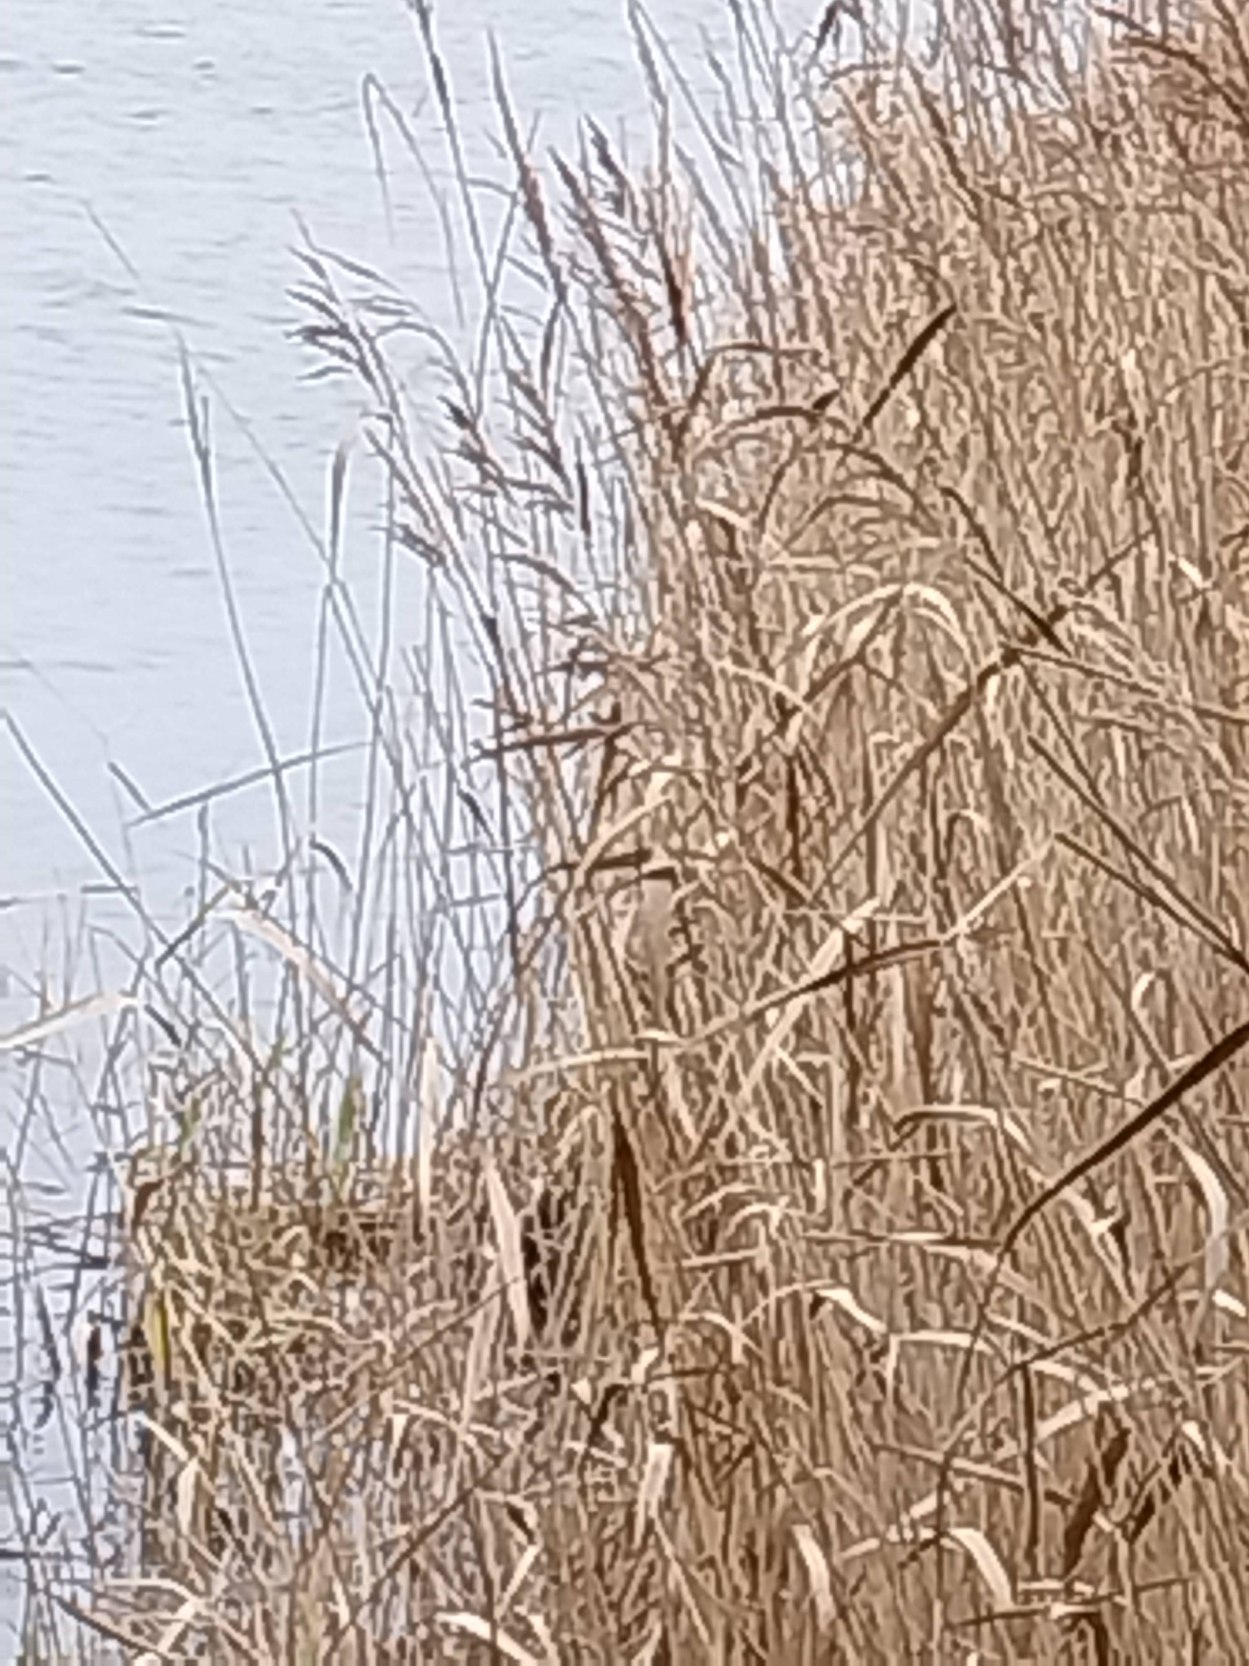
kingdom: Plantae
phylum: Tracheophyta
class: Liliopsida
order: Poales
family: Poaceae
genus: Phragmites
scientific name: Phragmites australis
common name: Tagrør
